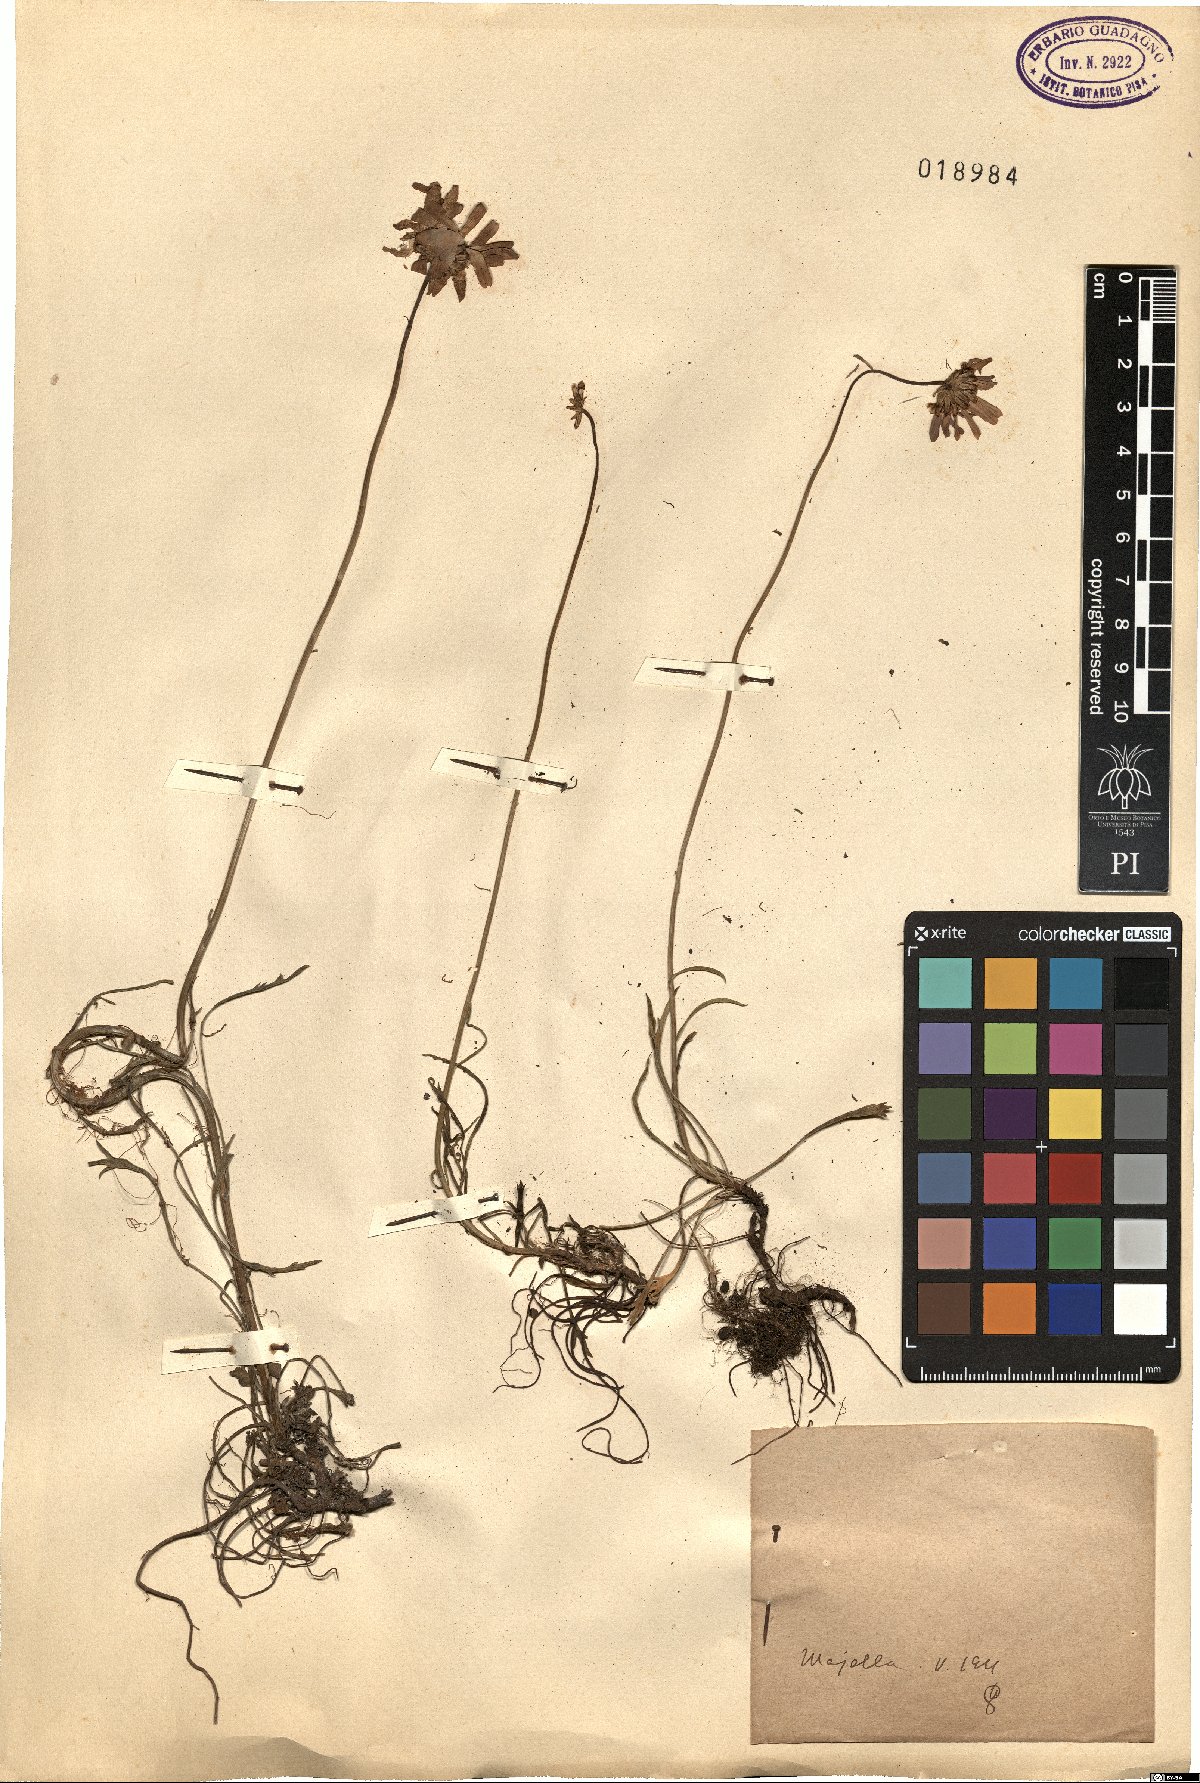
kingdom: Plantae
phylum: Tracheophyta
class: Magnoliopsida
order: Asterales
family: Asteraceae
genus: Leucanthemum
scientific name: Leucanthemum
